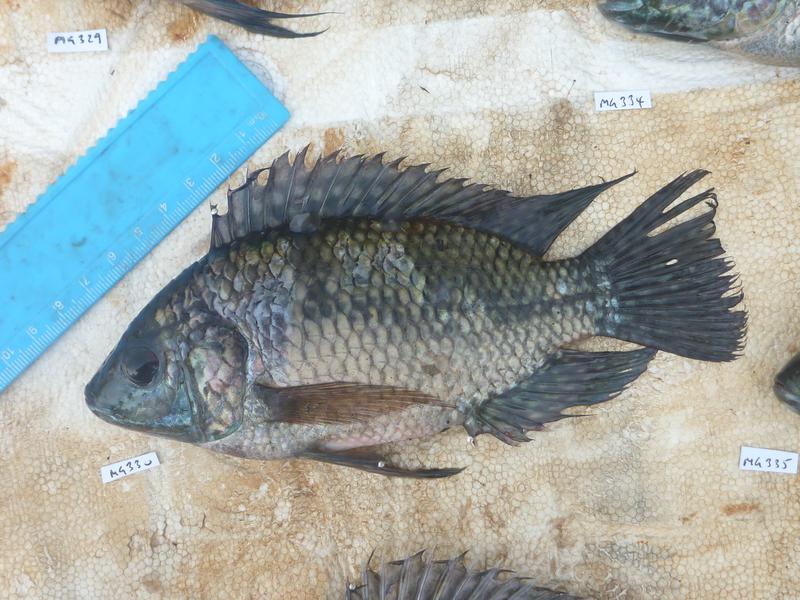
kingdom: Animalia
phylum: Chordata
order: Perciformes
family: Cichlidae
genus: Oreochromis
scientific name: Oreochromis leucostictus
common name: Blue spotted tilapia
